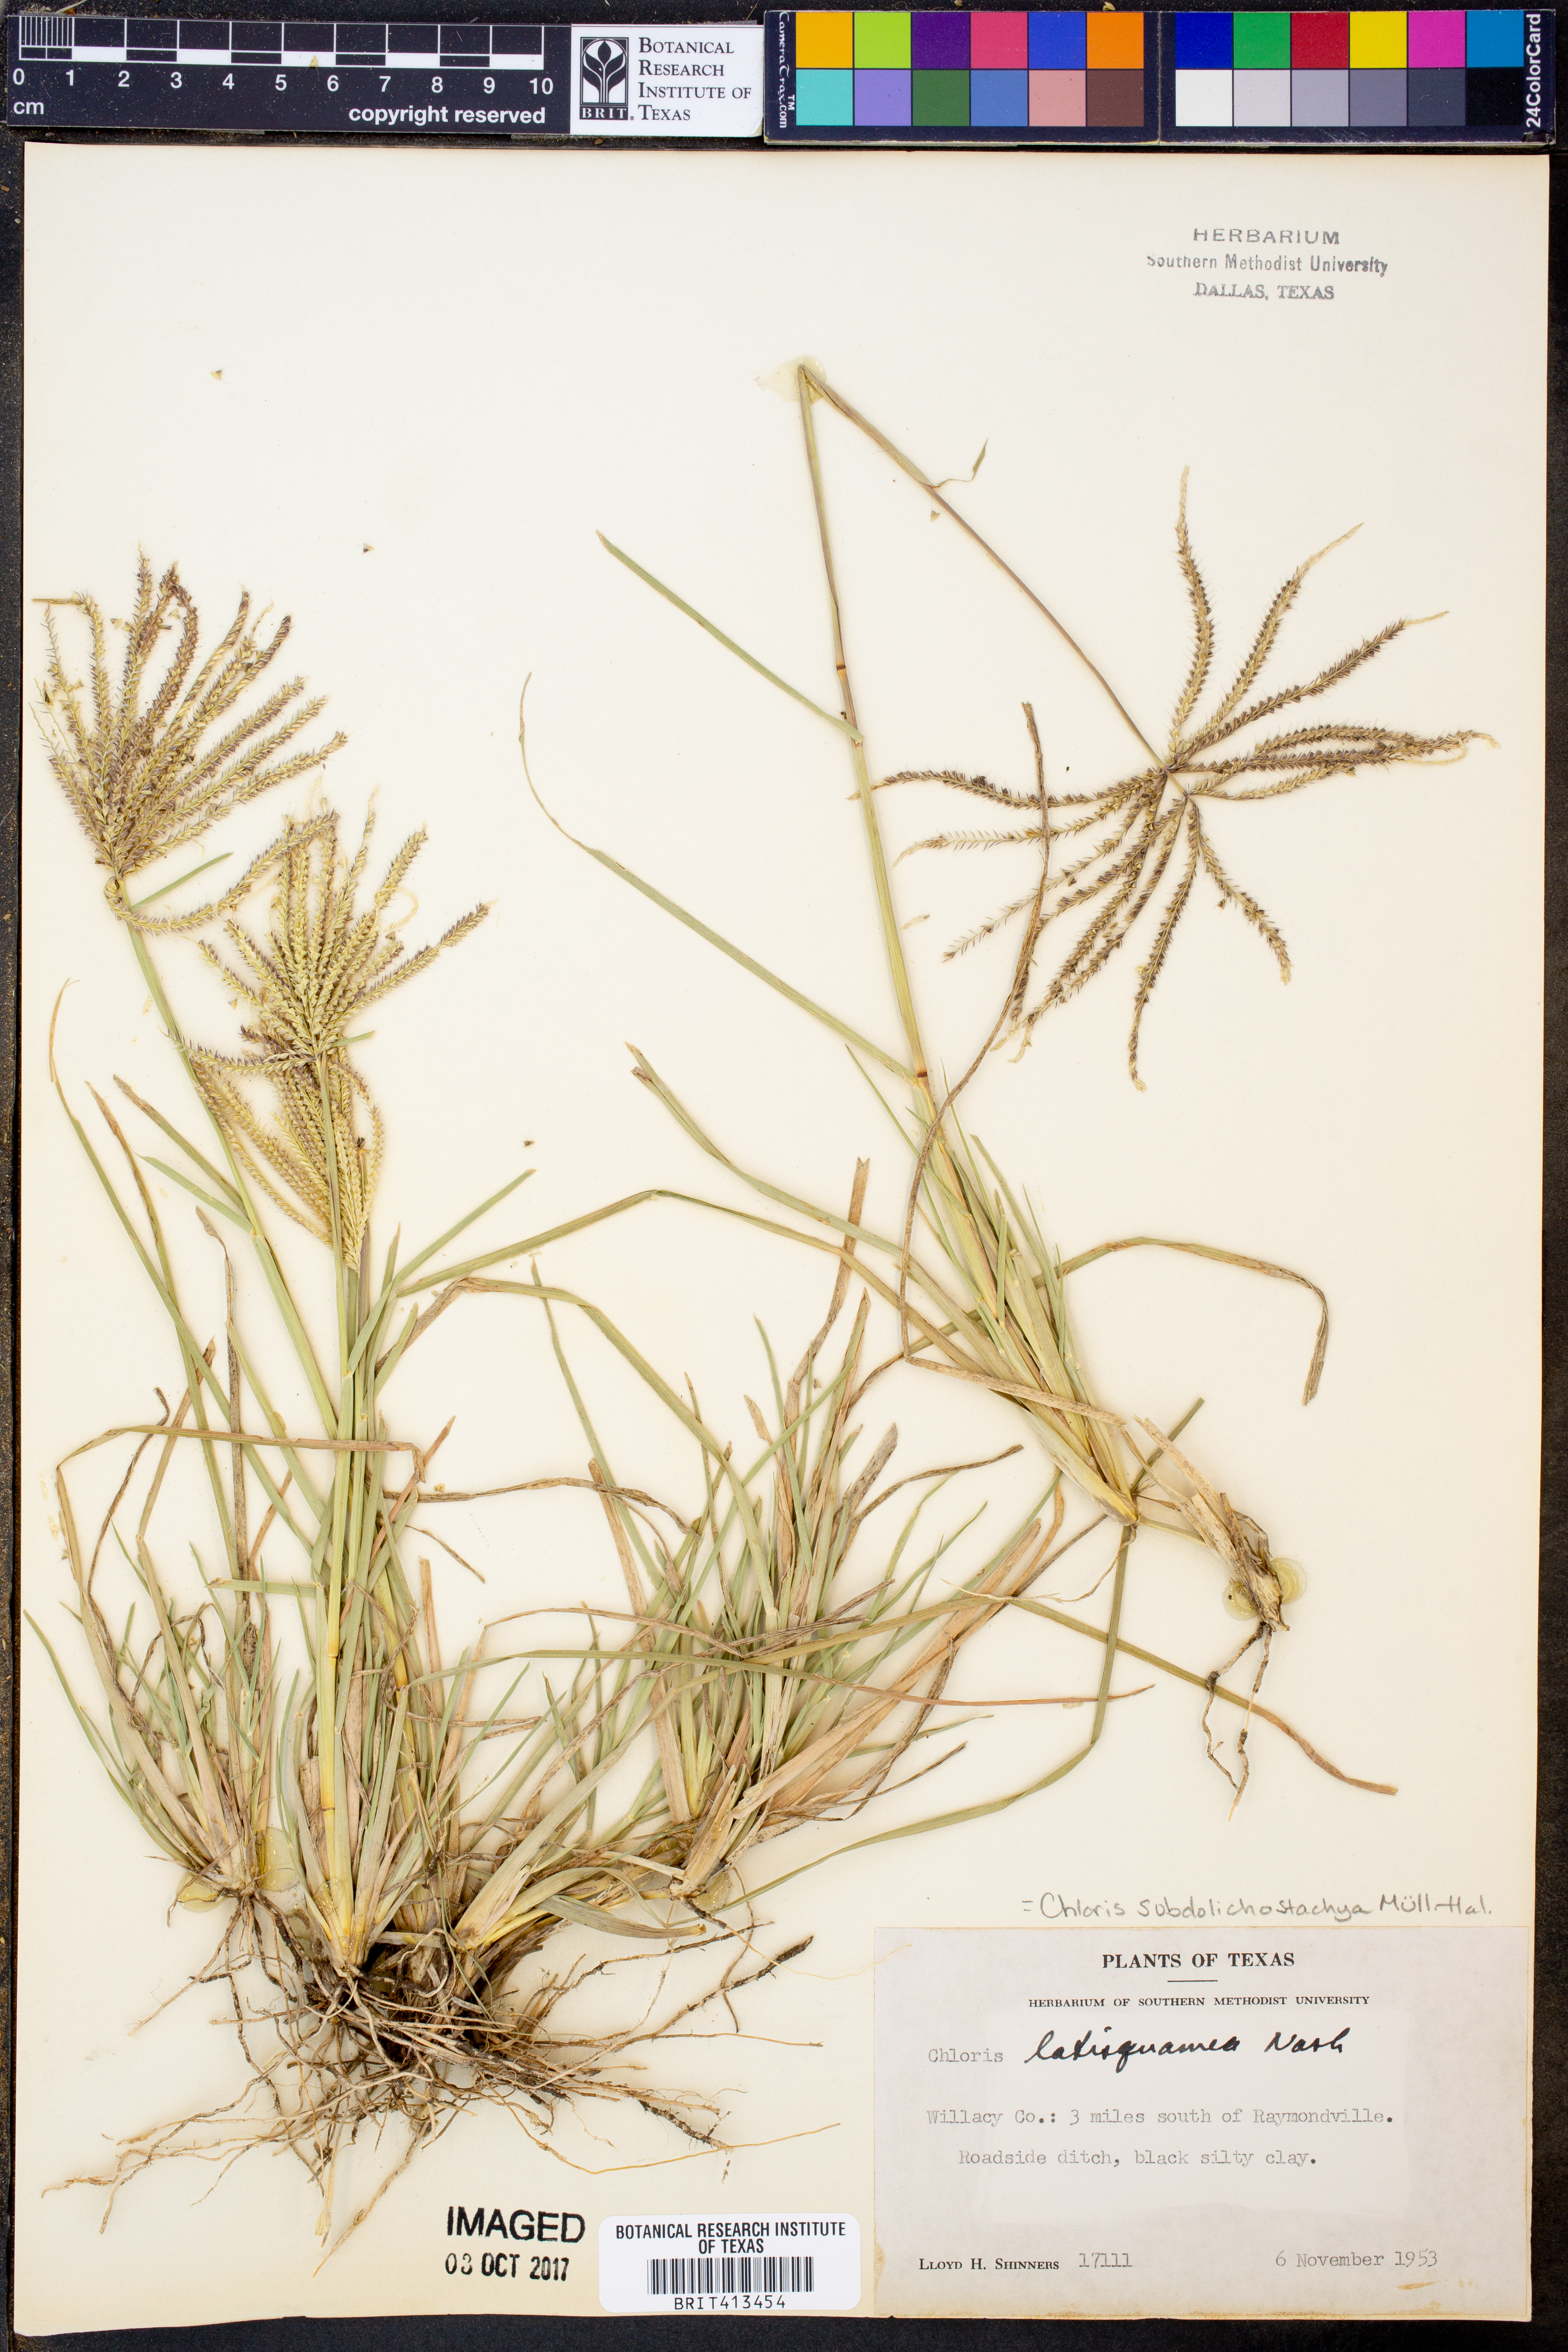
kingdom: Plantae
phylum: Tracheophyta
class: Liliopsida
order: Poales
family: Poaceae
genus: Chloris
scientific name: Chloris subdolichostachya
